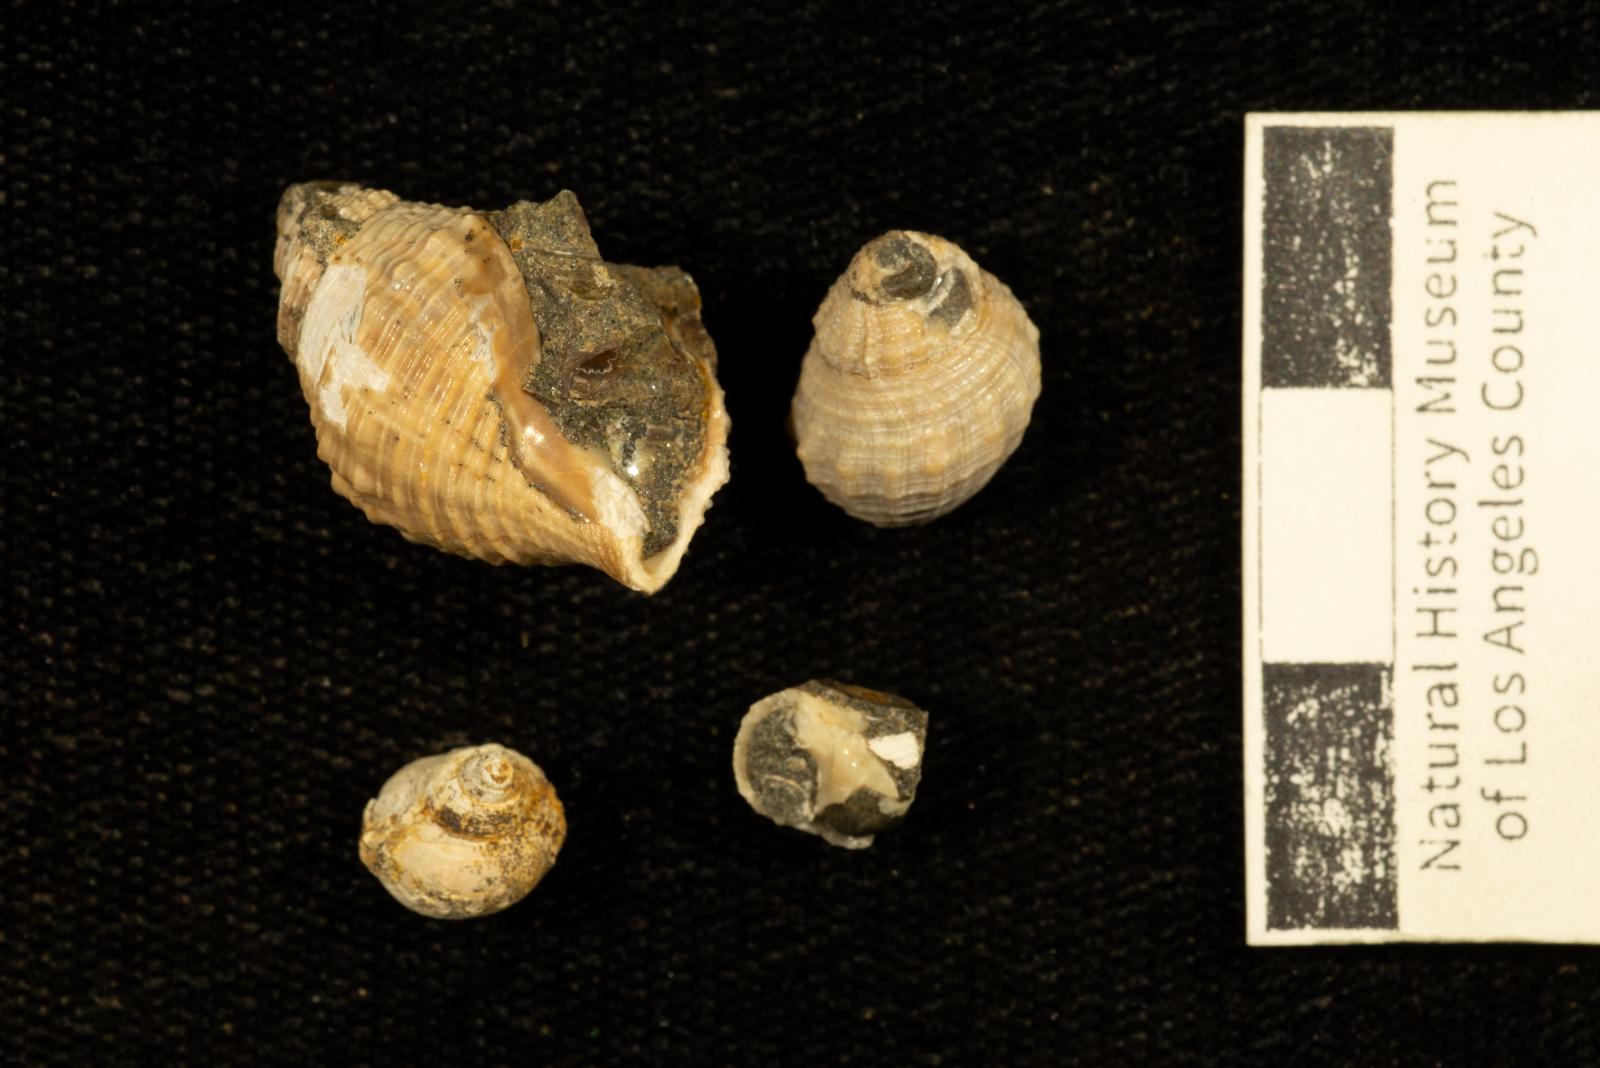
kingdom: Animalia
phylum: Mollusca
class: Gastropoda
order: Neogastropoda
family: Perissityidae
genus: Murphitys
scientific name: Murphitys michaeli
